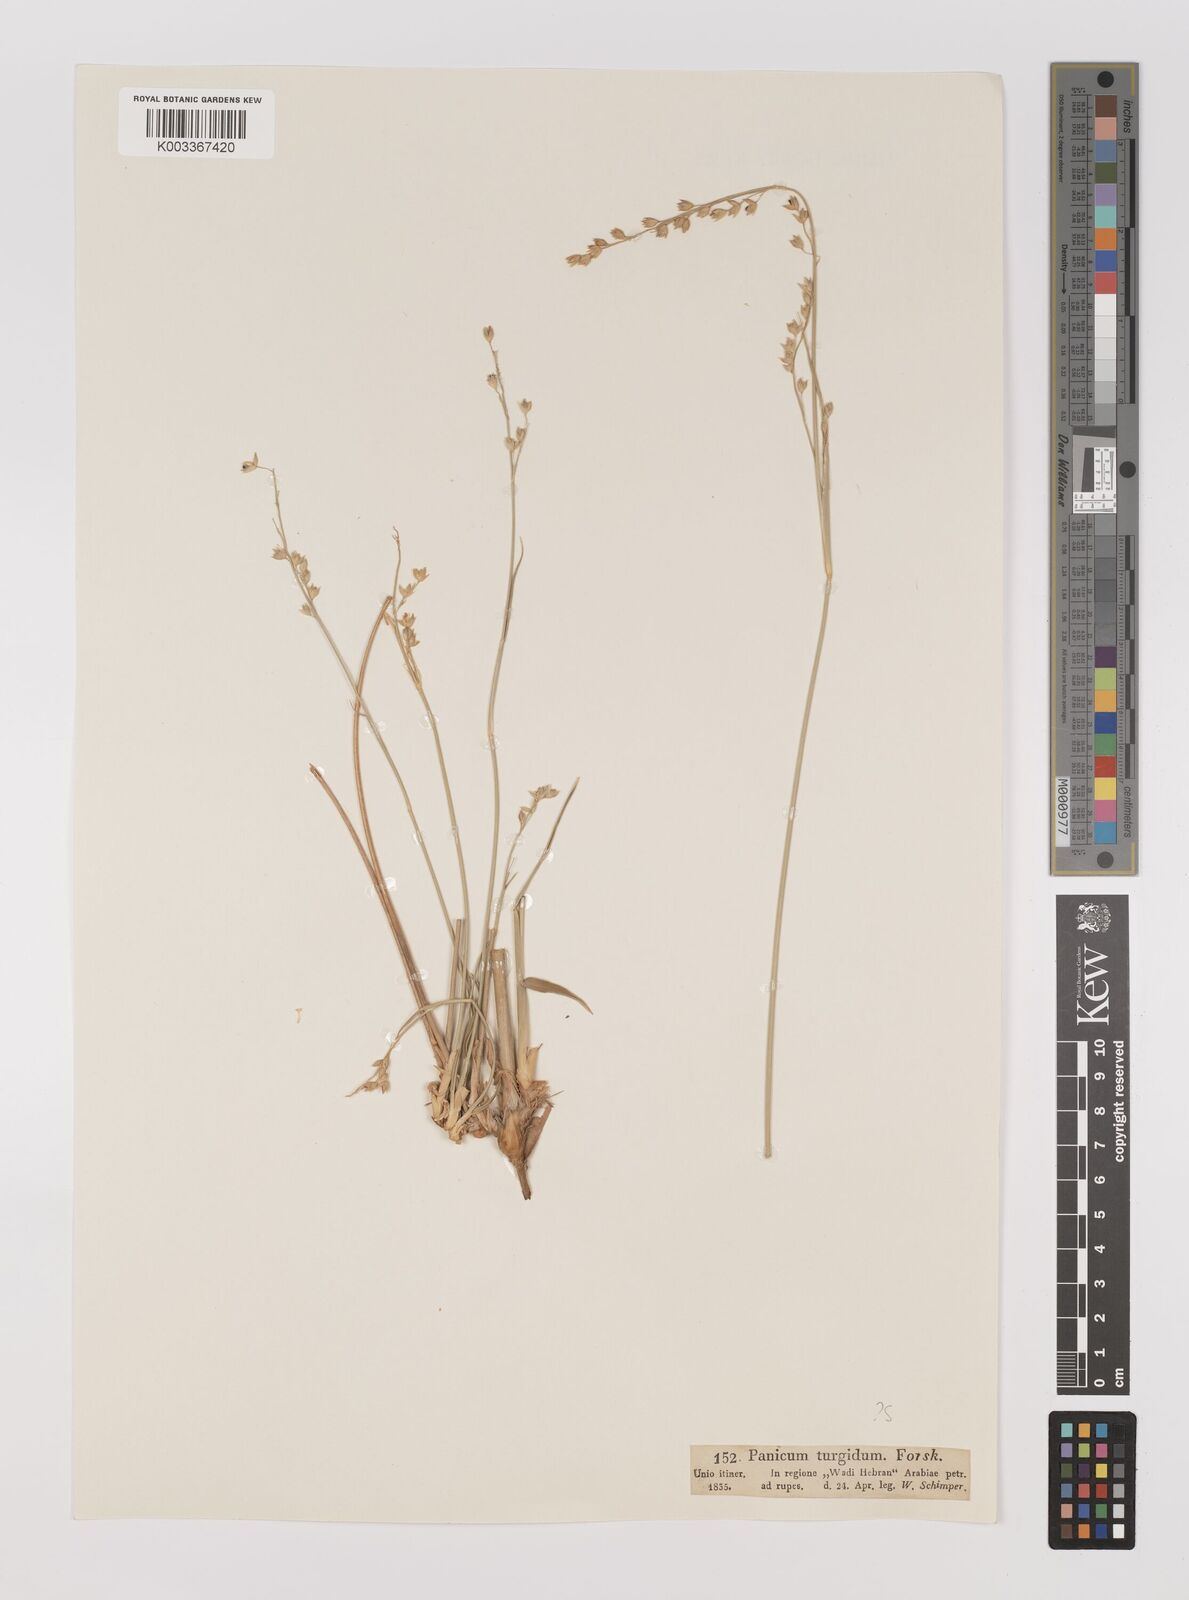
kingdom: Plantae
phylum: Tracheophyta
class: Liliopsida
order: Poales
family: Poaceae
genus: Panicum
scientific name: Panicum turgidum
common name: Desert grass
